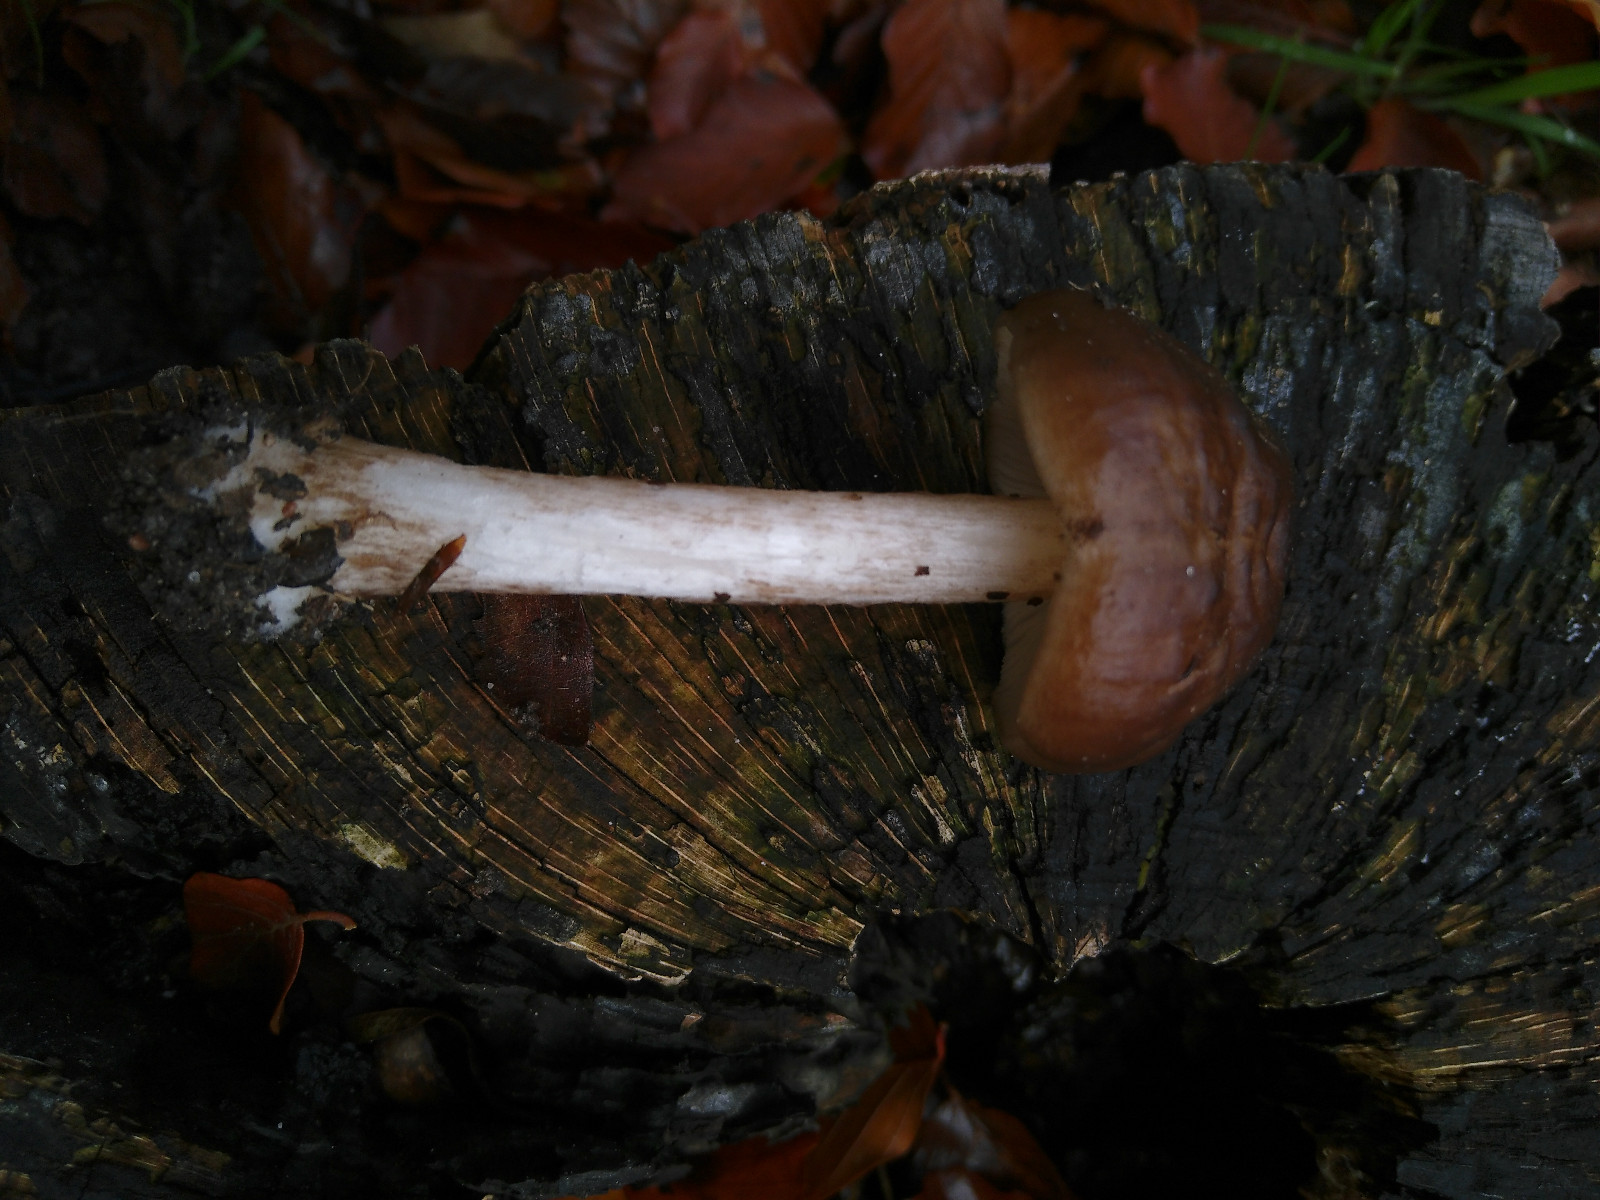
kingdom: Fungi
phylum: Basidiomycota
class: Agaricomycetes
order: Agaricales
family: Pluteaceae
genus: Pluteus
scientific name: Pluteus cervinus
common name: sodfarvet skærmhat
